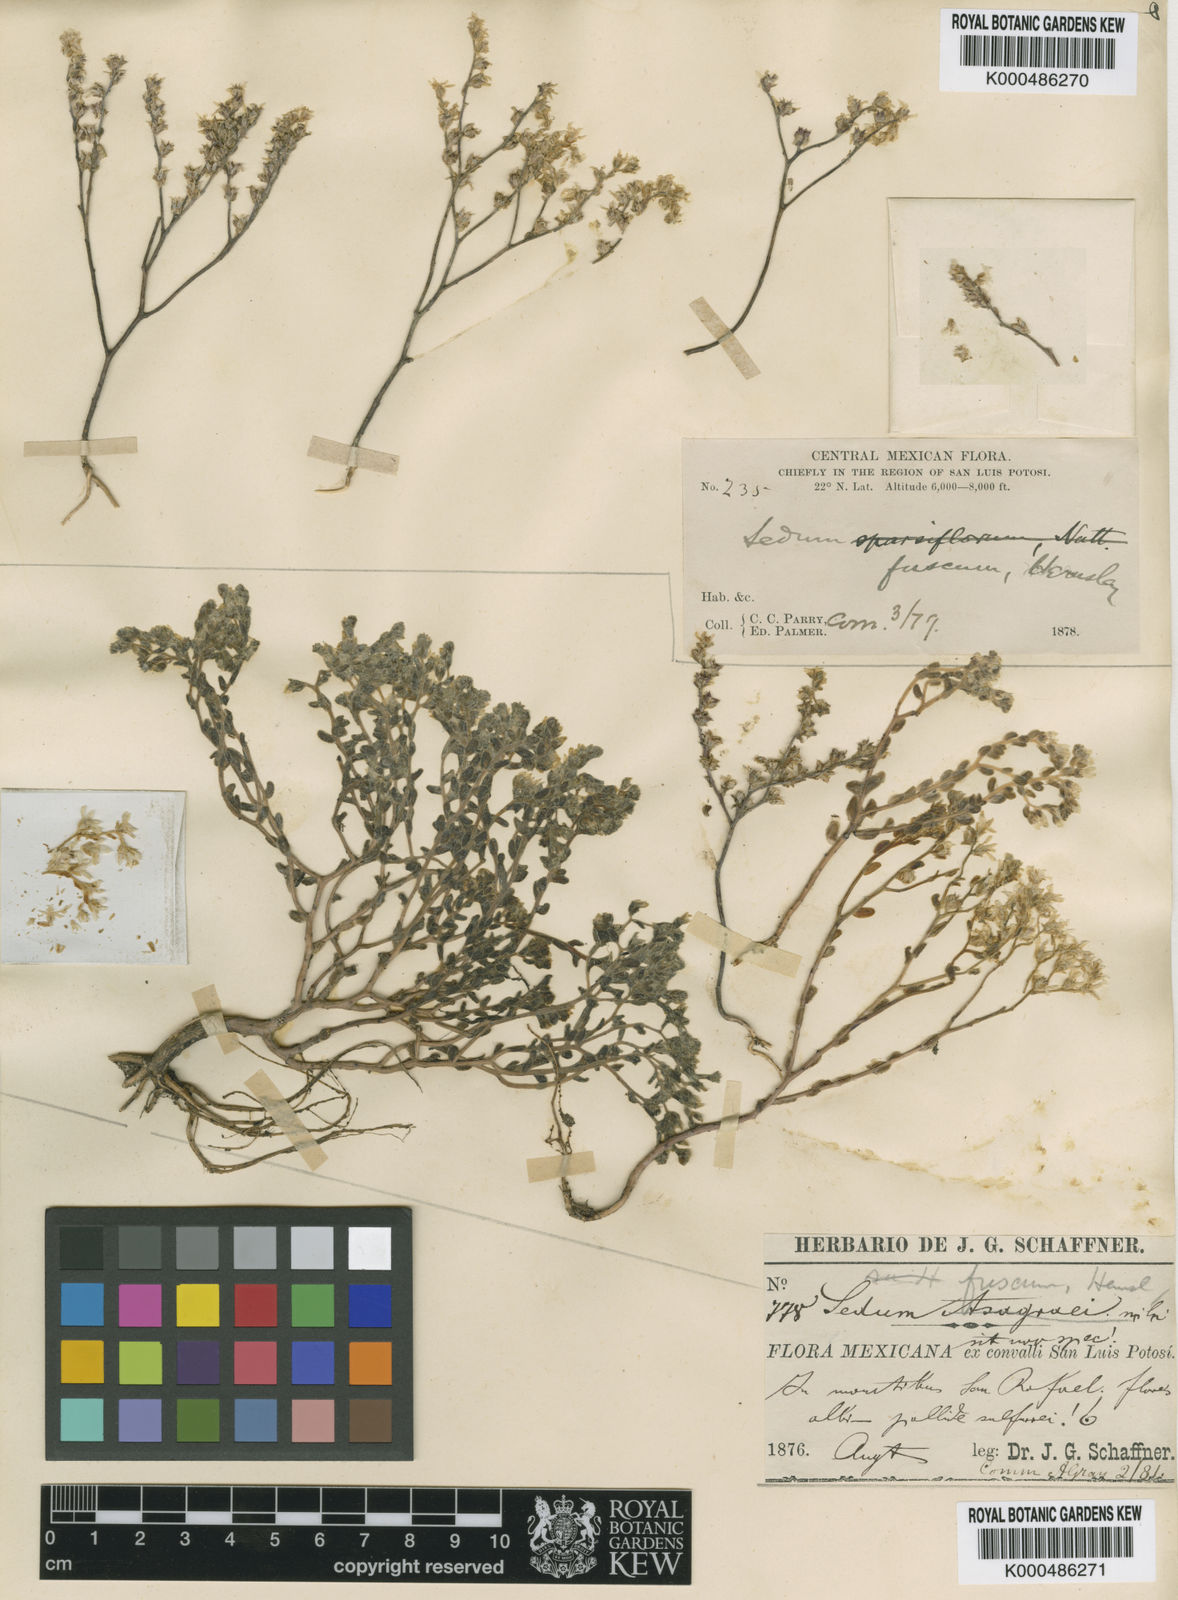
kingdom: Plantae
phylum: Tracheophyta
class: Magnoliopsida
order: Saxifragales
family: Crassulaceae
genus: Sedum
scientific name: Sedum fuscum
